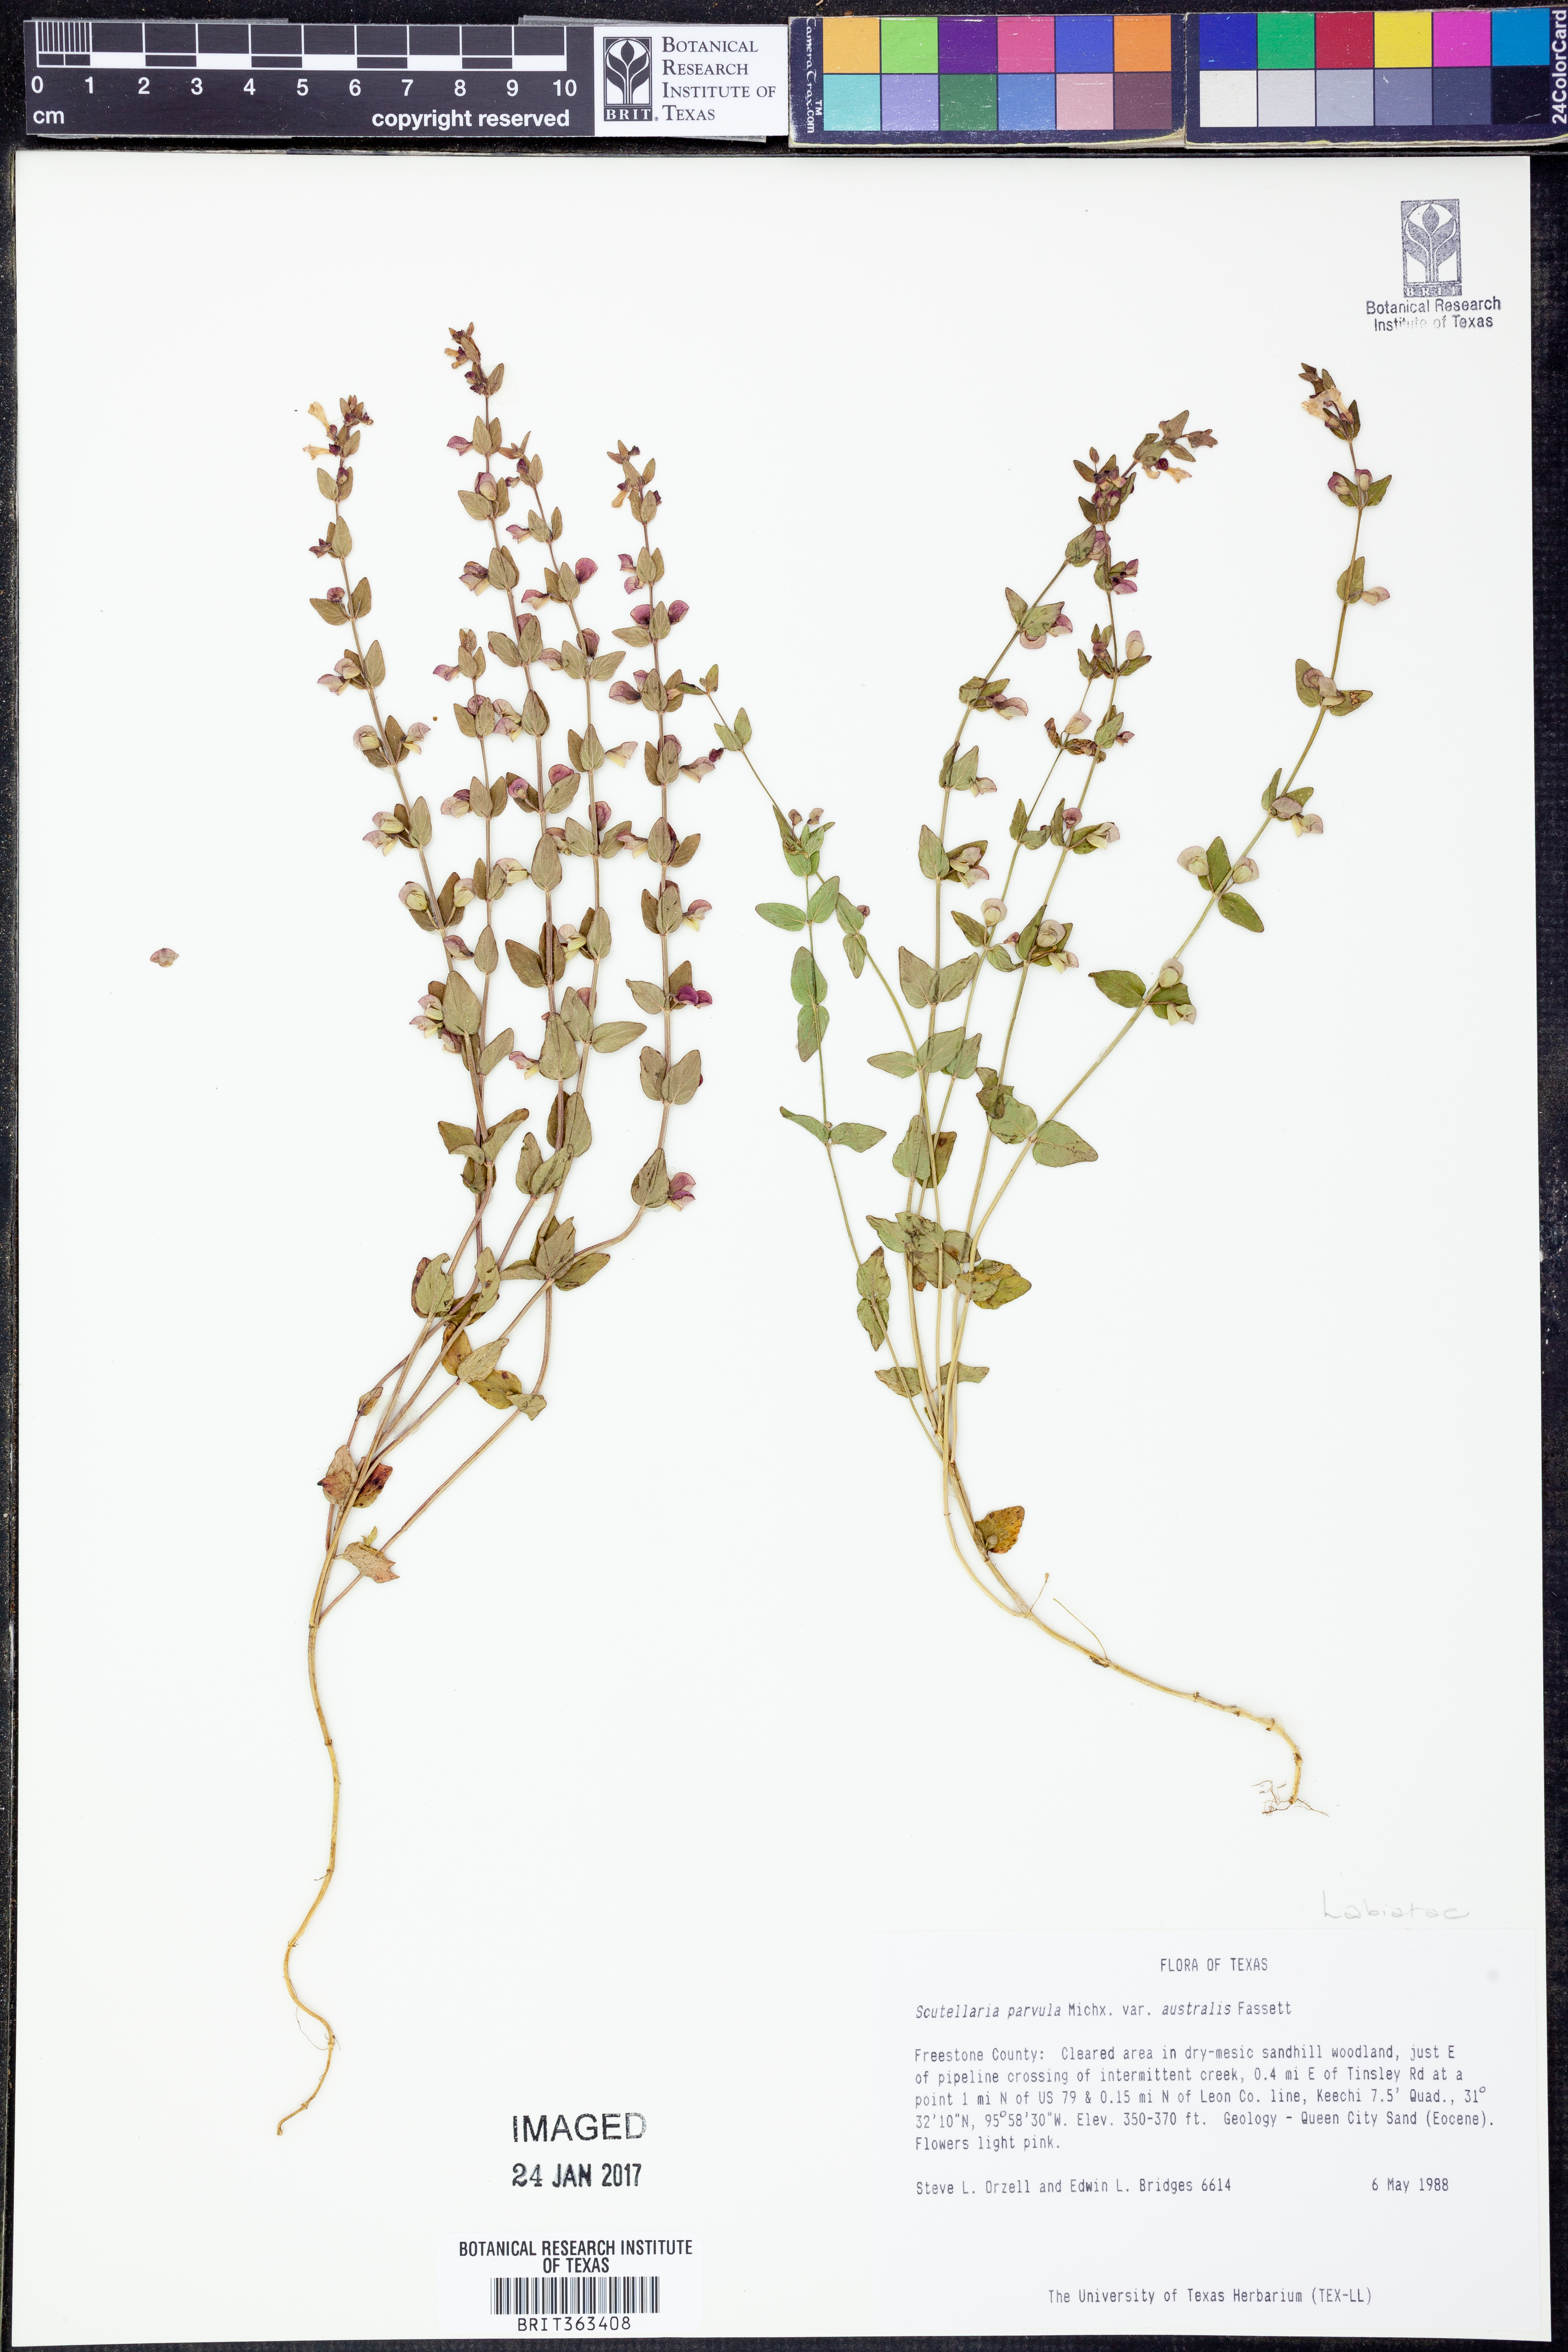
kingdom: Plantae
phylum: Tracheophyta
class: Magnoliopsida
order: Lamiales
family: Lamiaceae
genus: Scutellaria
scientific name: Scutellaria parvula
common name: Little scullcap
